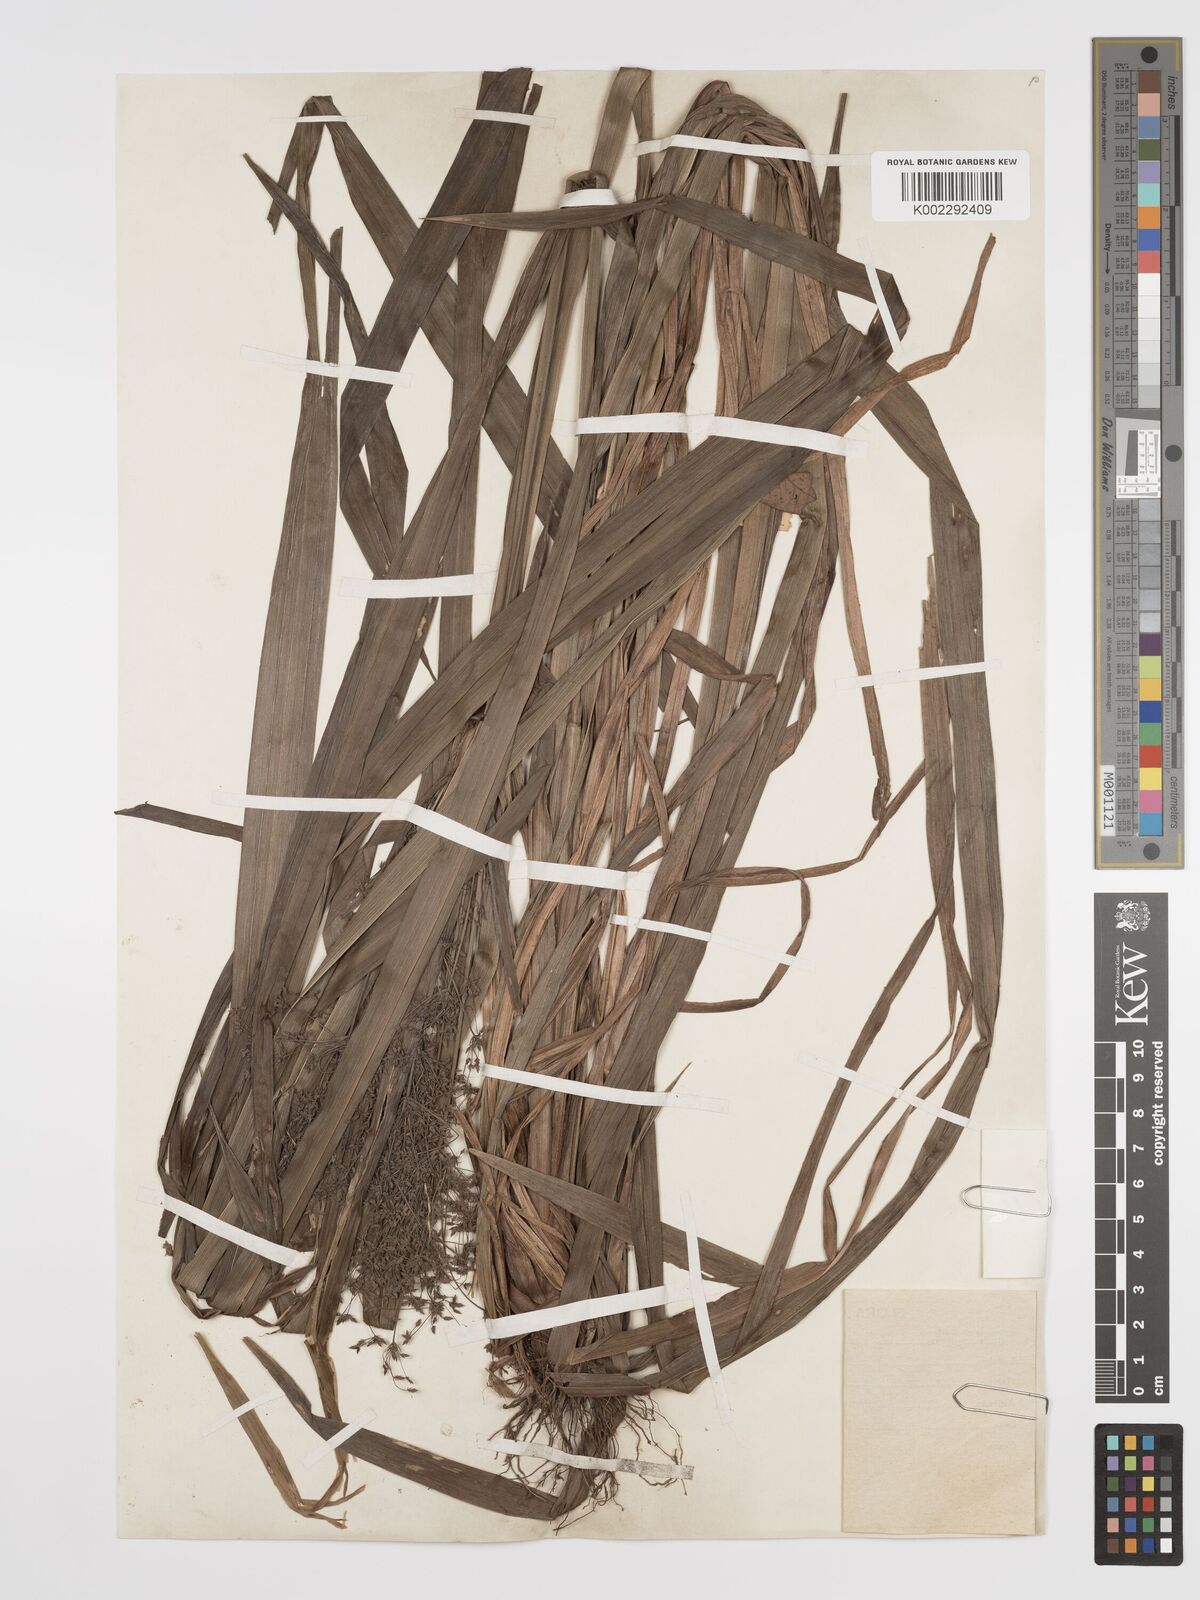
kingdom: Plantae
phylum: Tracheophyta
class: Liliopsida
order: Poales
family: Cyperaceae
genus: Cyperus
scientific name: Cyperus diffusus
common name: Dwarf umbrella grass
